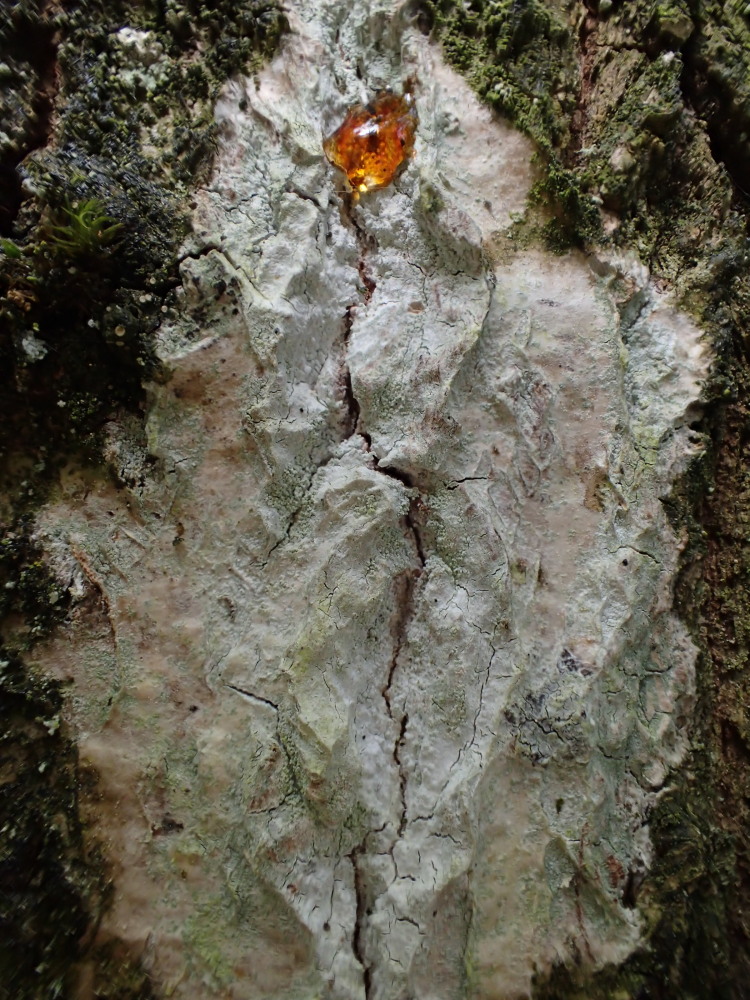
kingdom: Fungi
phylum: Ascomycota
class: Lecanoromycetes
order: Ostropales
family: Phlyctidaceae
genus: Phlyctis
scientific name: Phlyctis argena
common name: almindelig sølvlav
